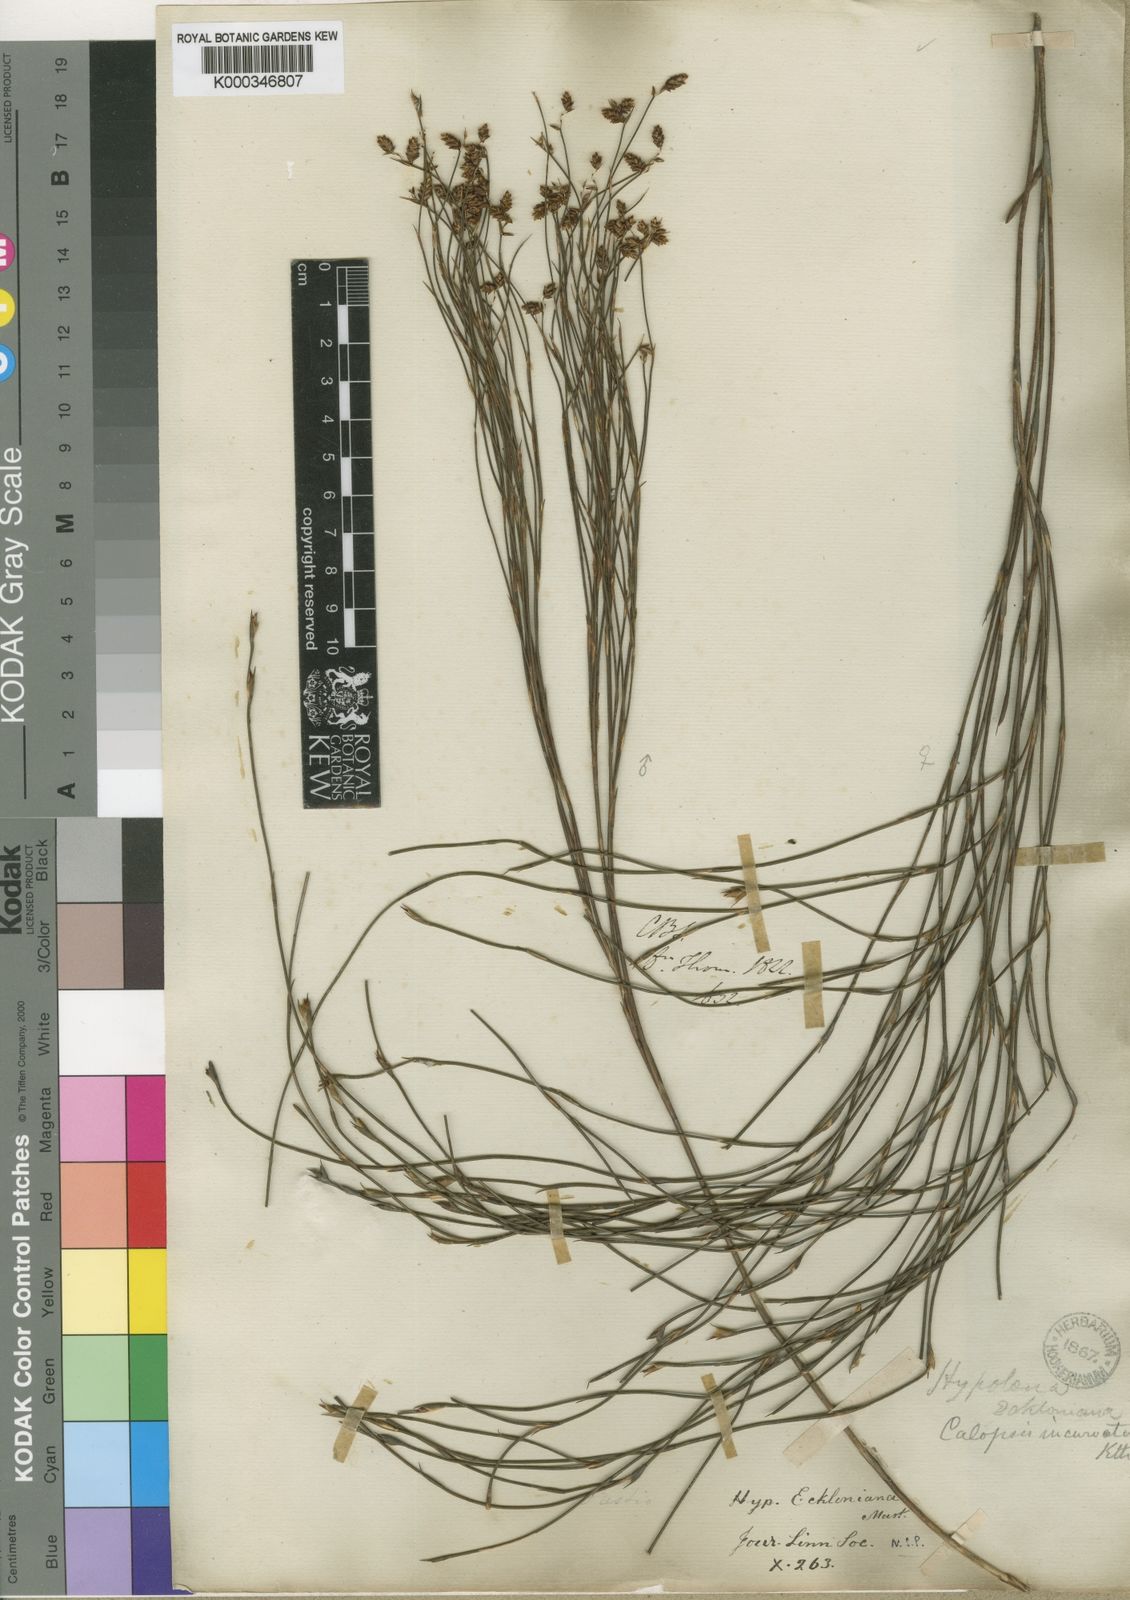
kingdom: Plantae
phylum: Tracheophyta
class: Liliopsida
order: Poales
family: Restionaceae
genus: Mastersiella
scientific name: Mastersiella digitata
